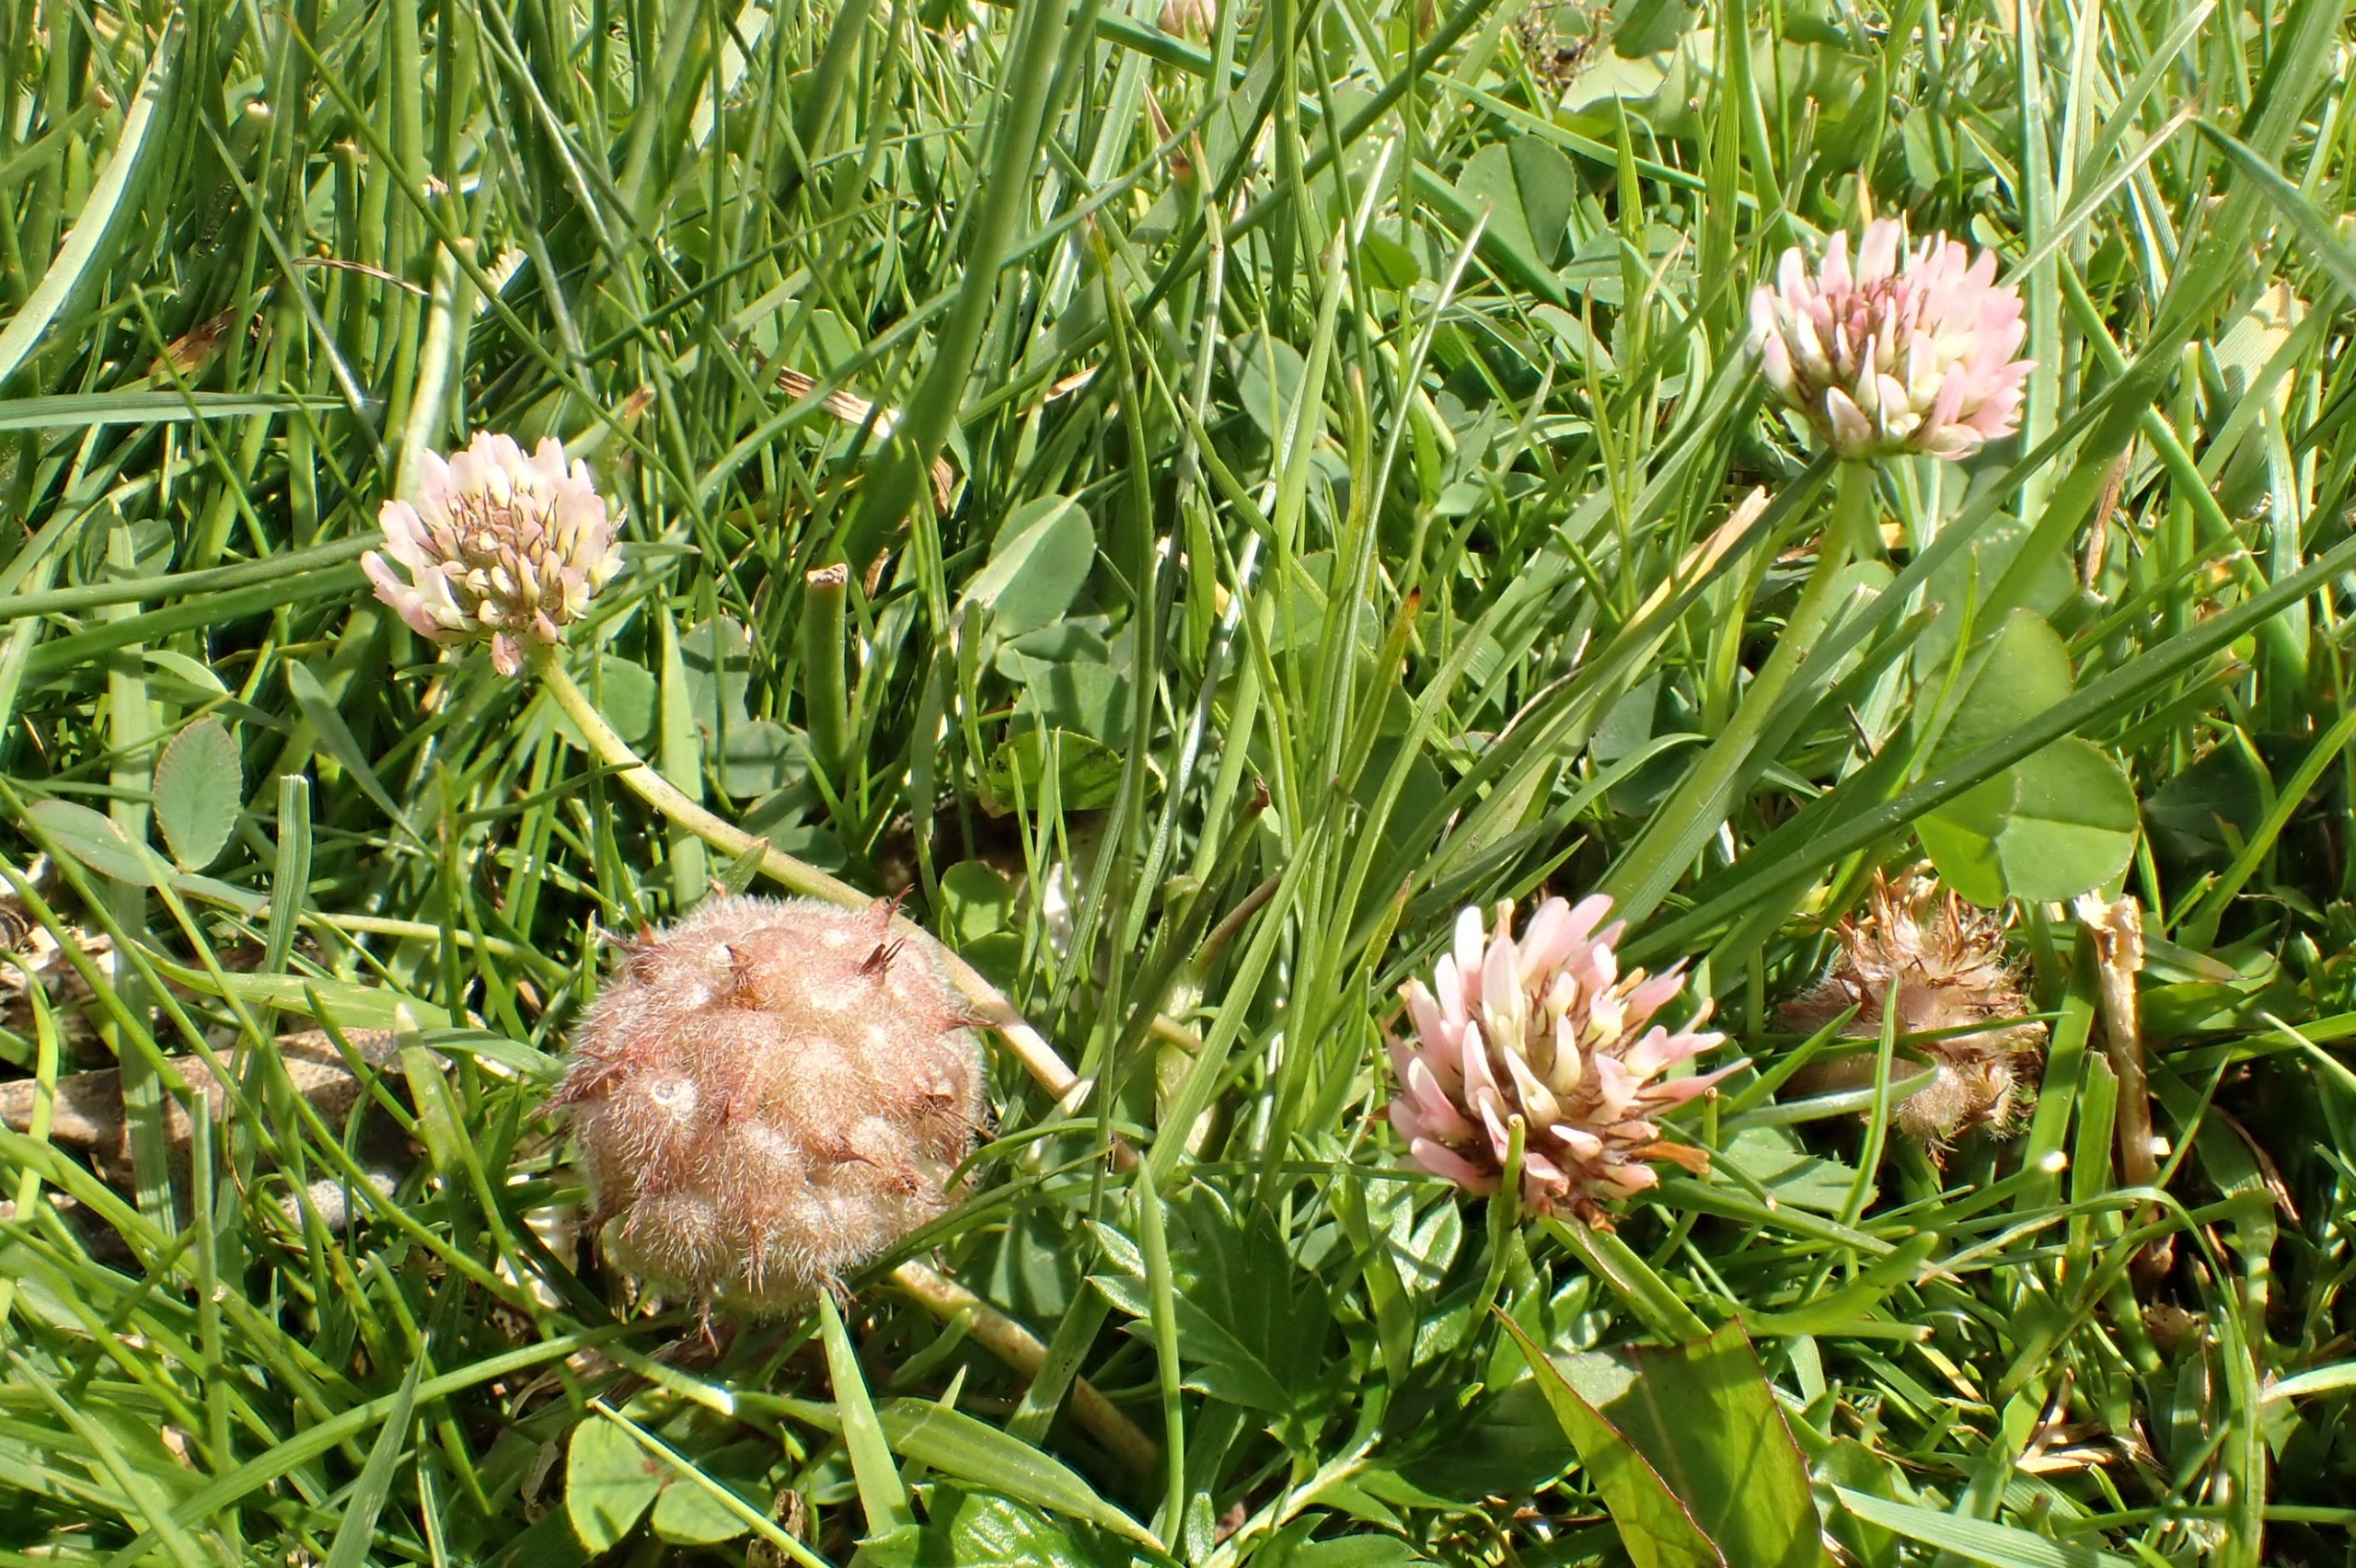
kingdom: Plantae
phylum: Tracheophyta
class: Magnoliopsida
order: Fabales
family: Fabaceae
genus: Trifolium
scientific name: Trifolium fragiferum
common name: Jordbær-kløver
